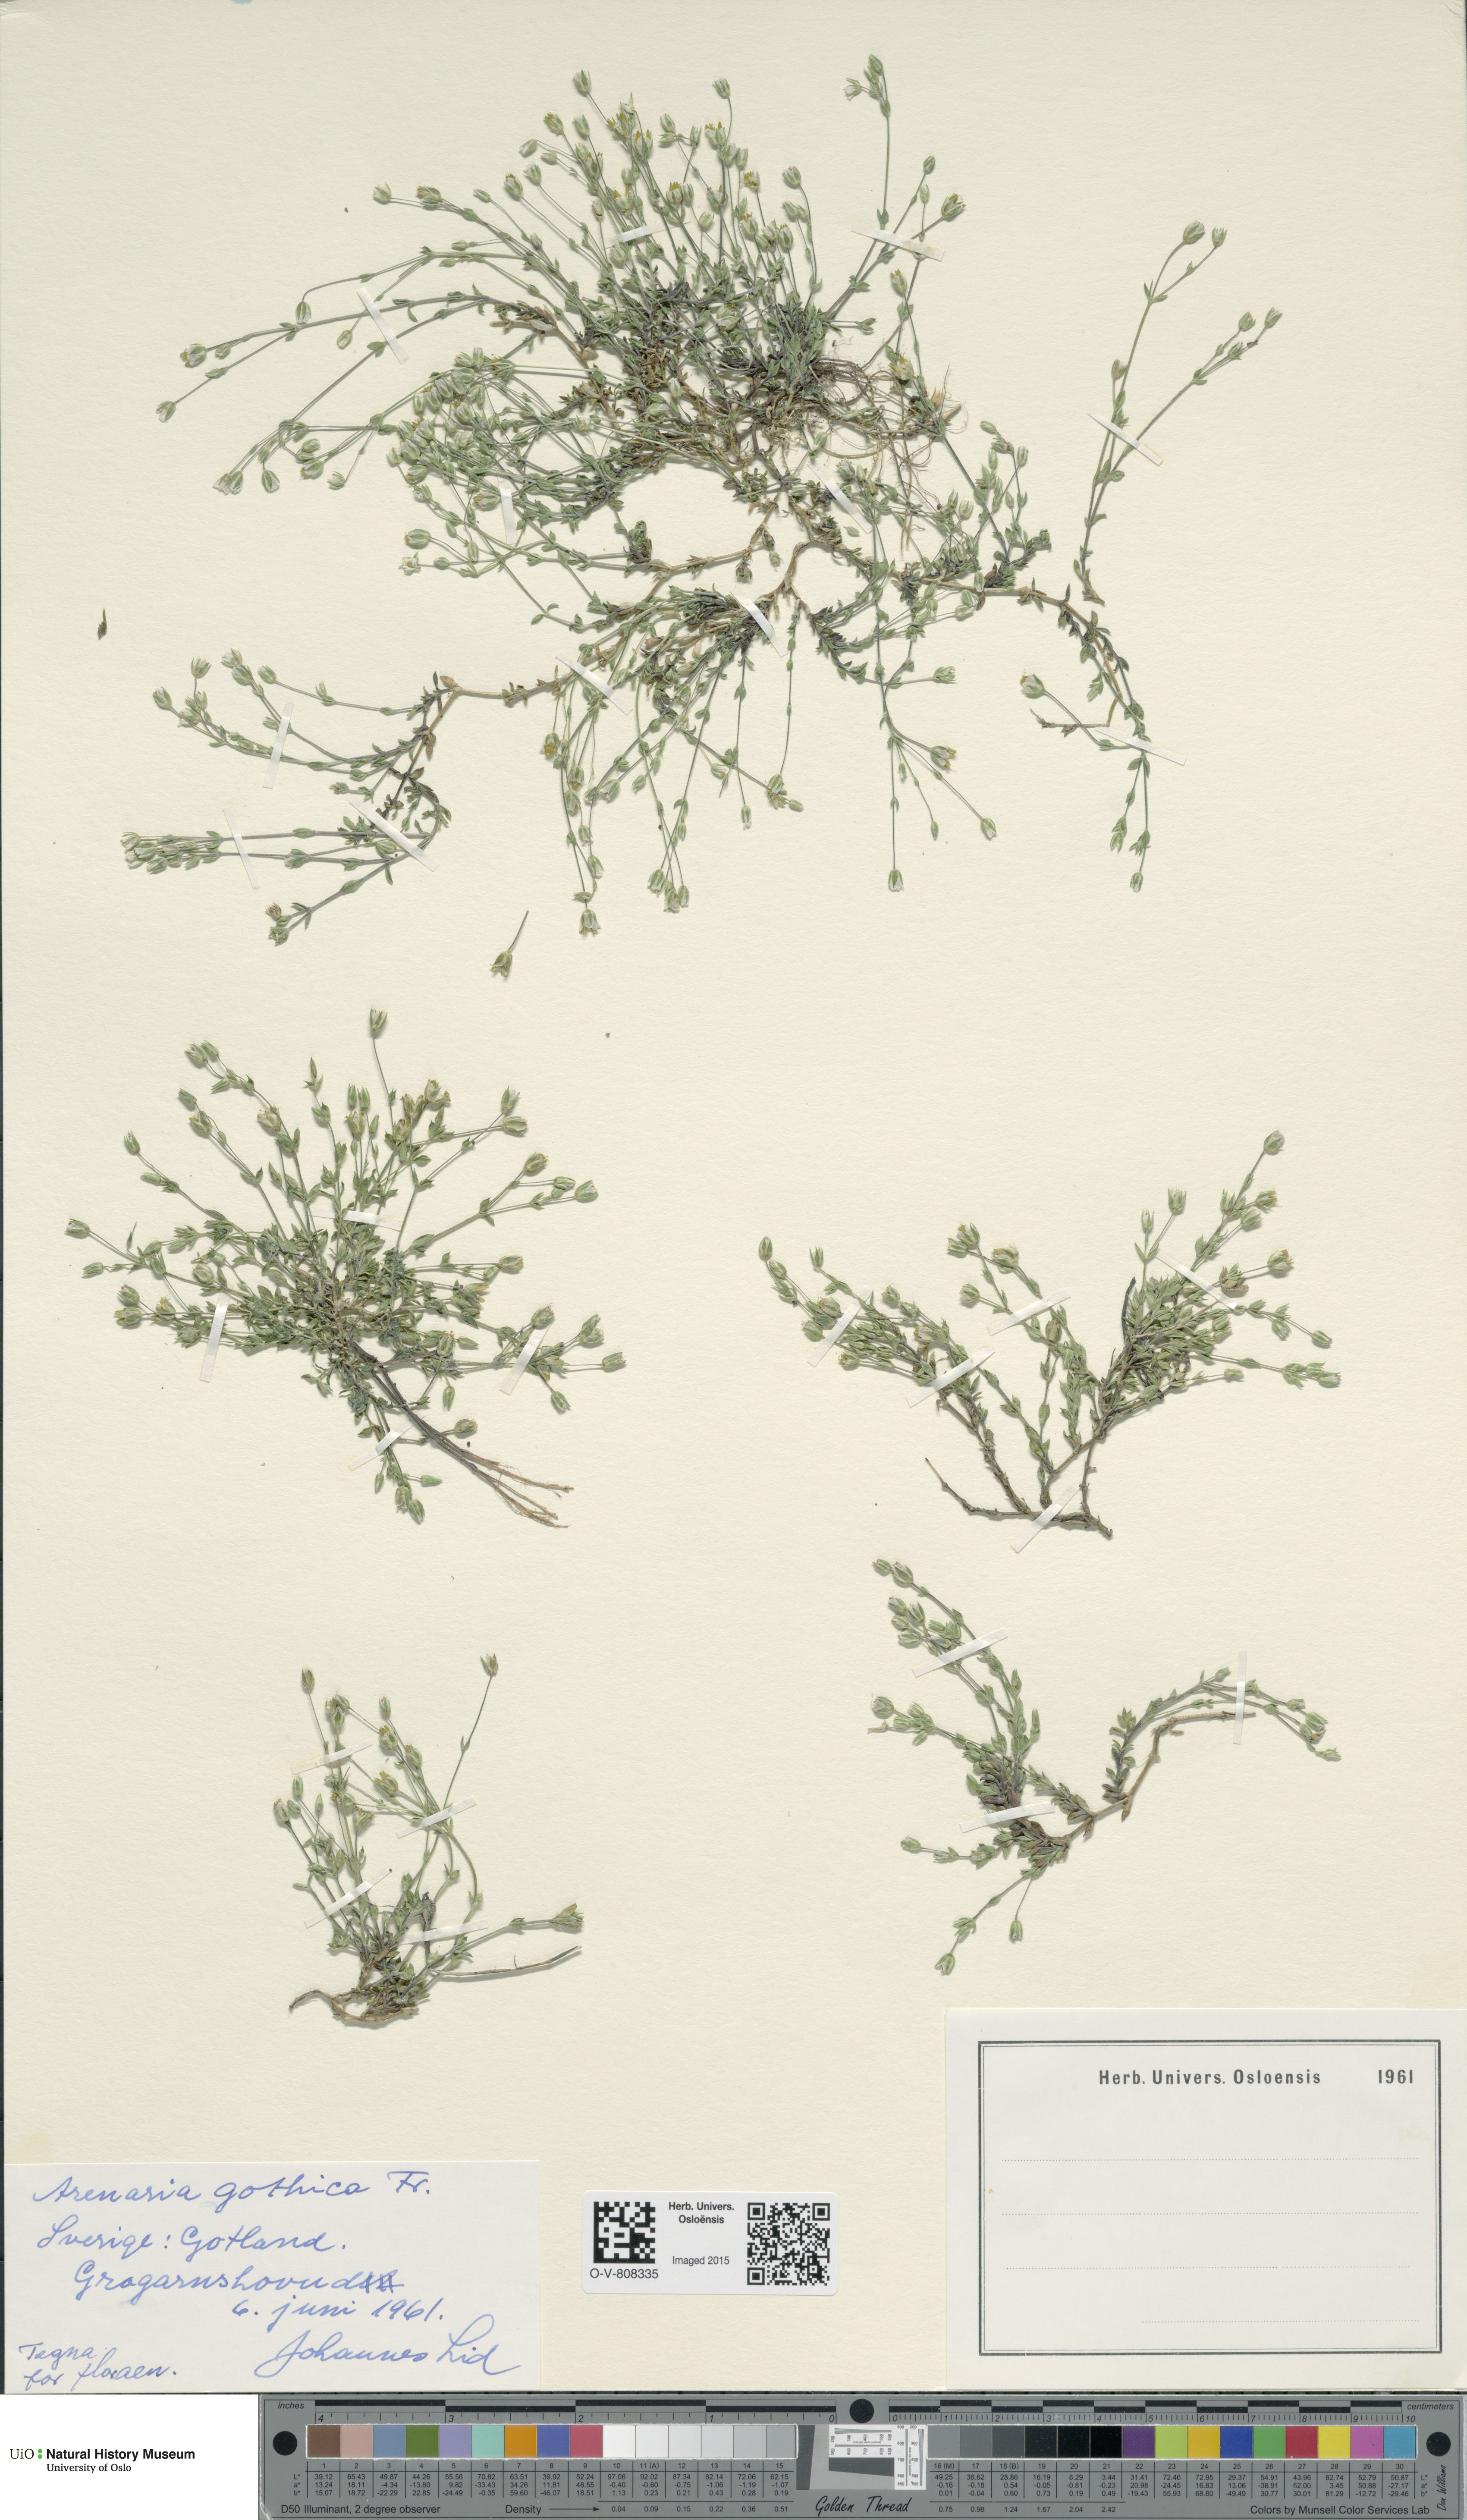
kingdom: Plantae
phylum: Tracheophyta
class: Magnoliopsida
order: Caryophyllales
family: Caryophyllaceae
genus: Arenaria
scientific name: Arenaria gothica
